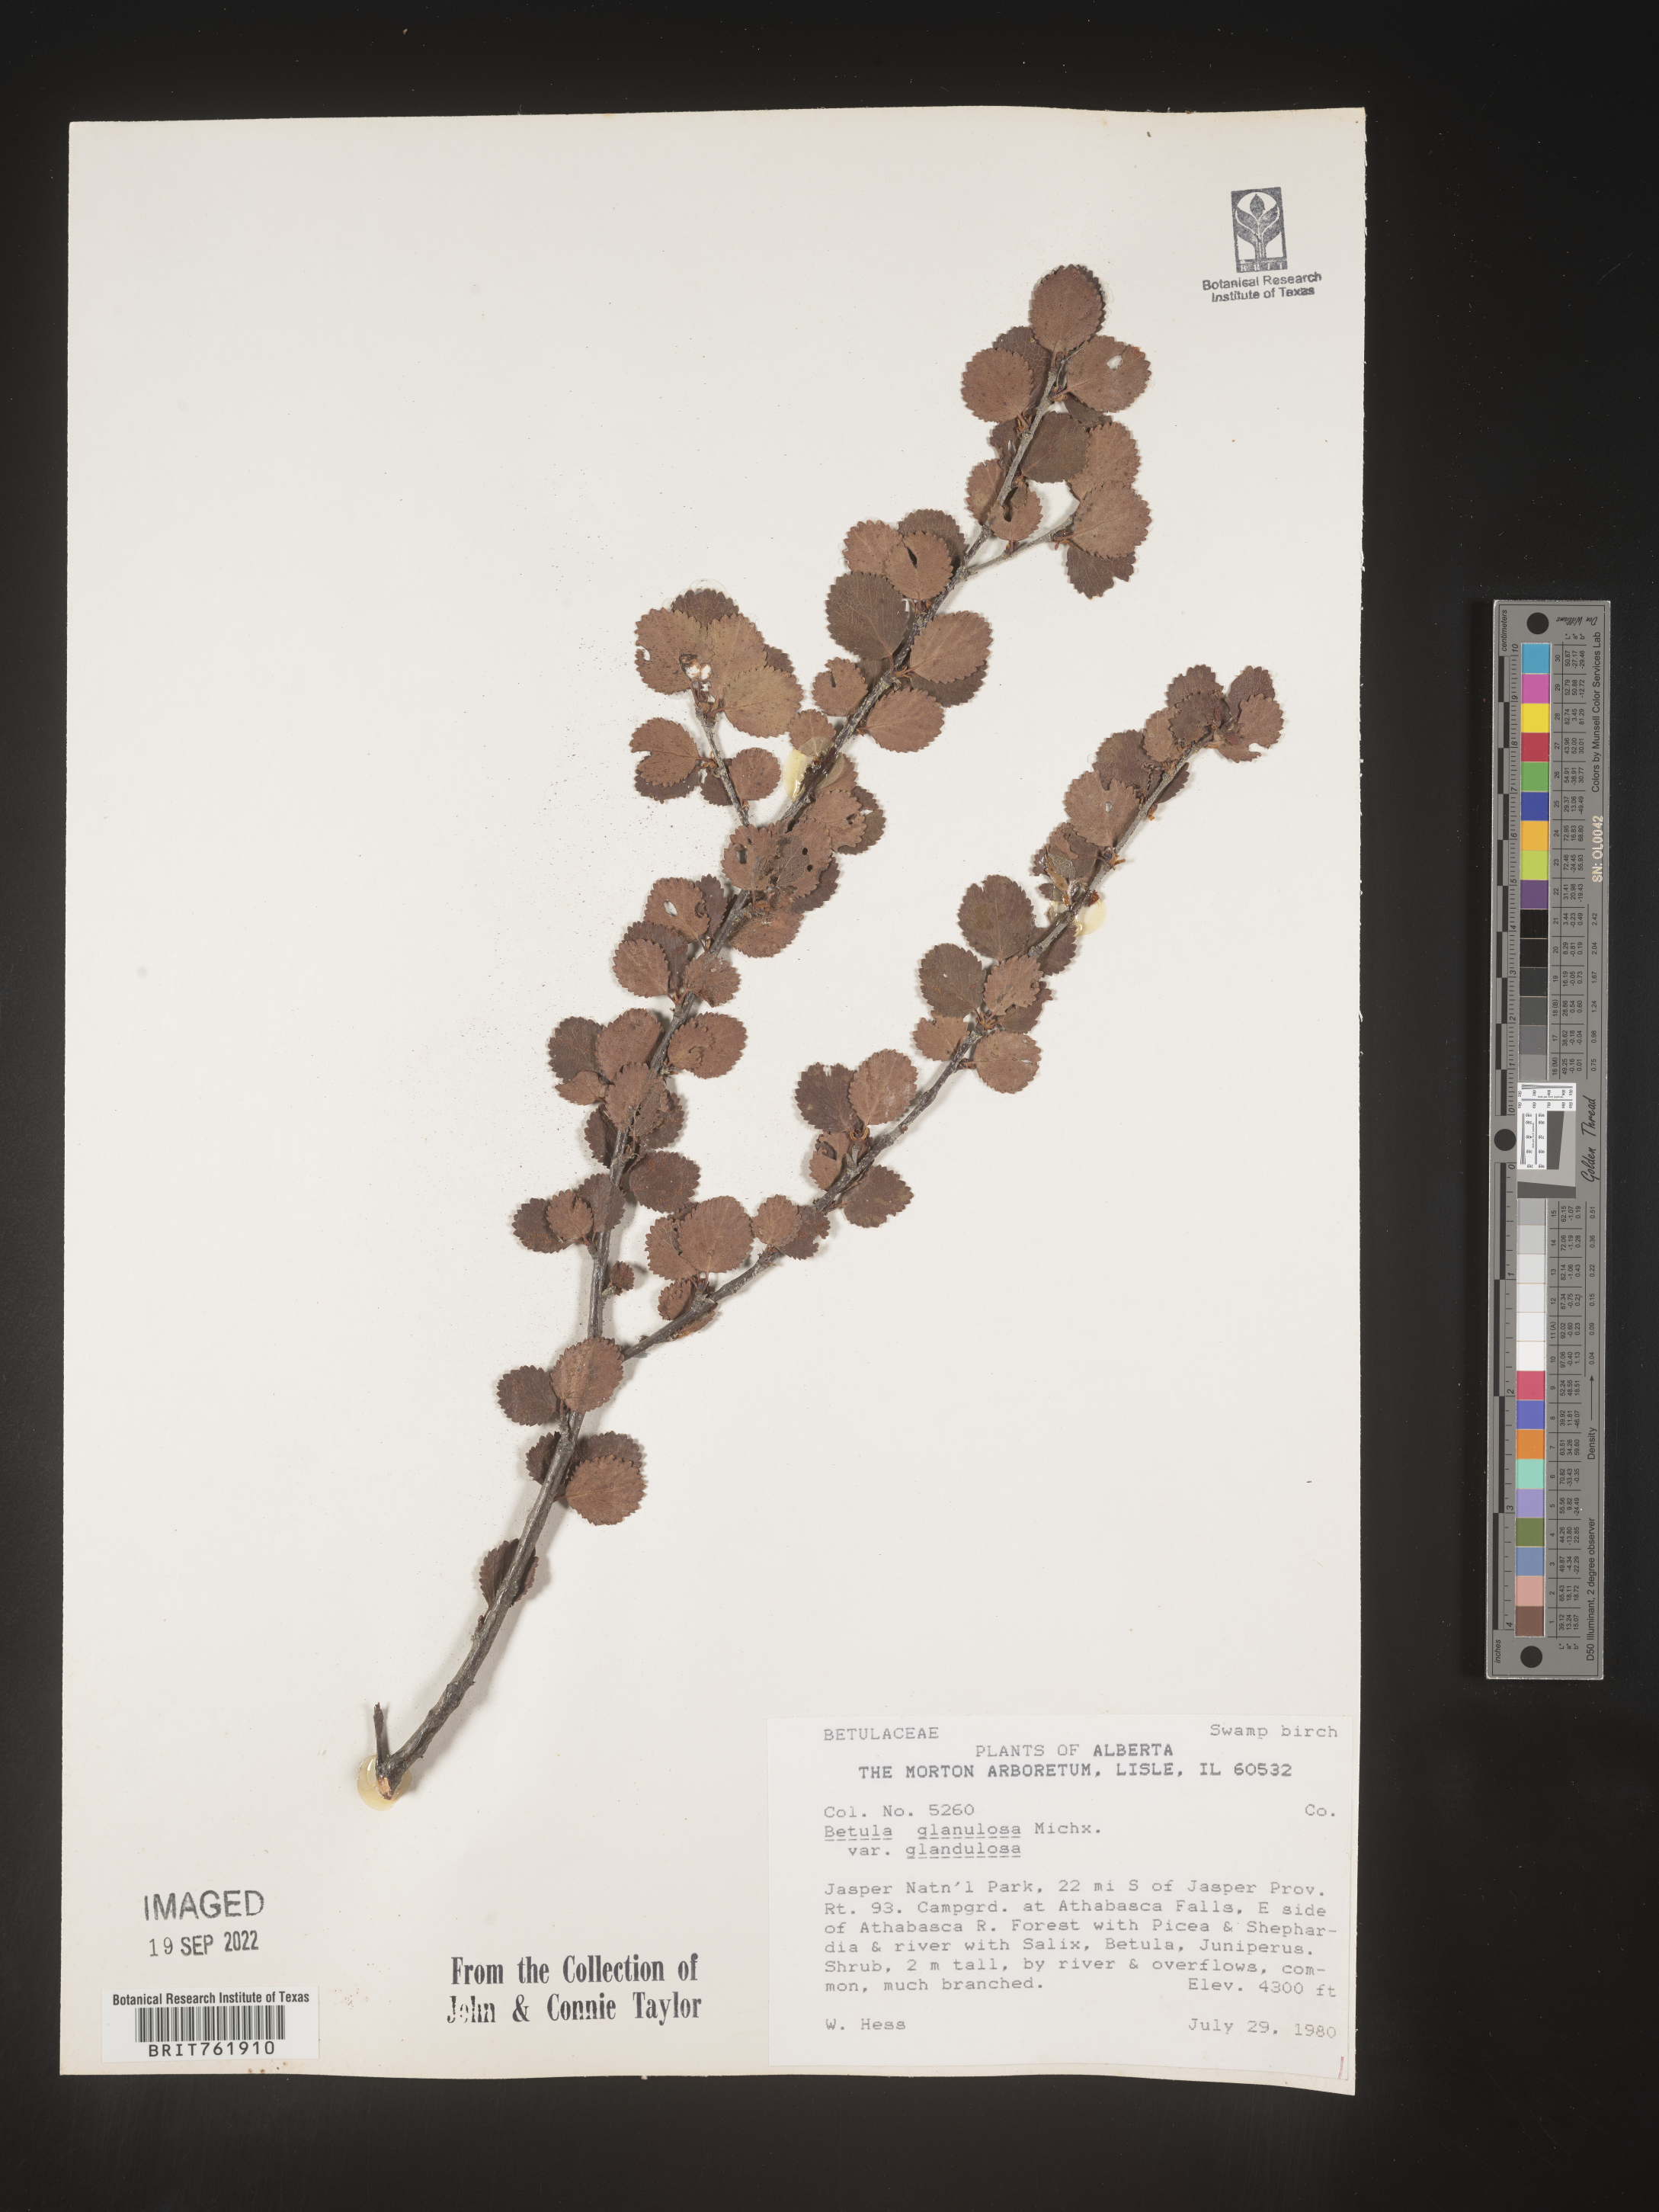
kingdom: Plantae
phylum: Tracheophyta
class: Magnoliopsida
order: Fagales
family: Betulaceae
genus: Betula
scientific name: Betula nana
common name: Arctic dwarf birch
